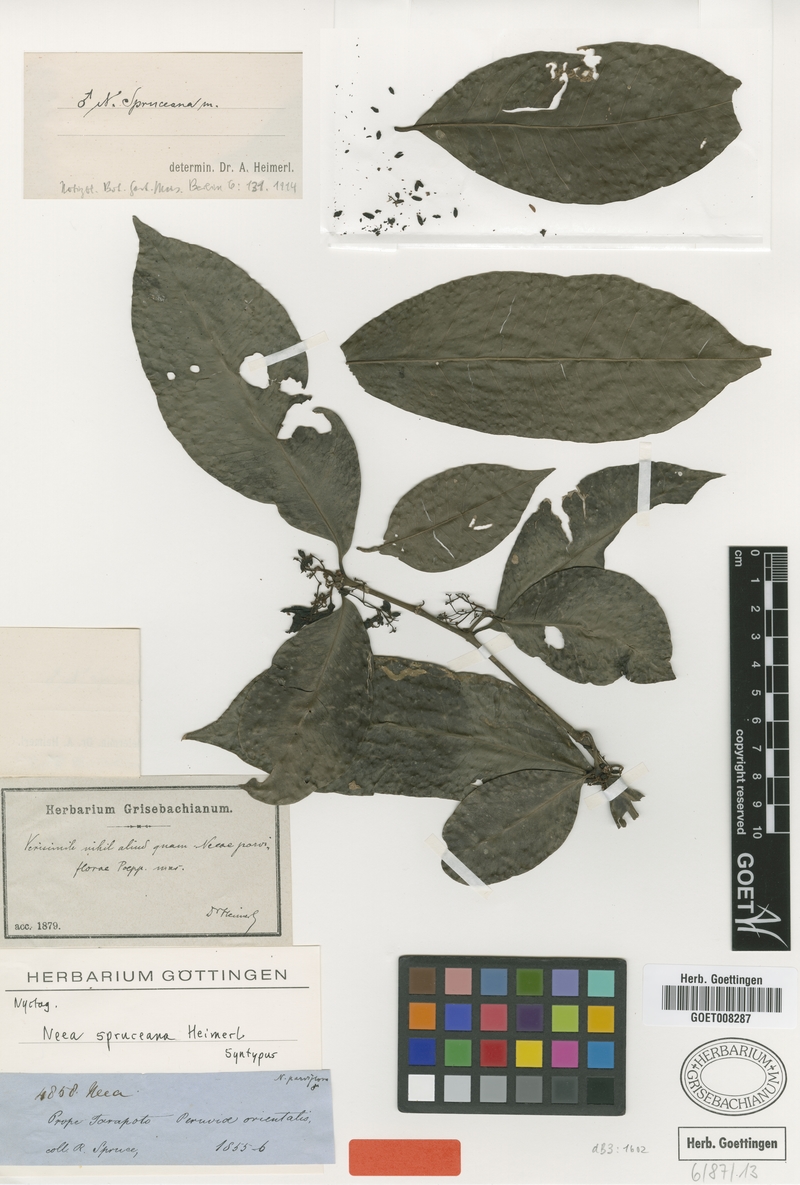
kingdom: Plantae
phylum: Tracheophyta
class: Magnoliopsida
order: Caryophyllales
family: Nyctaginaceae
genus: Neea
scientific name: Neea spruceana
